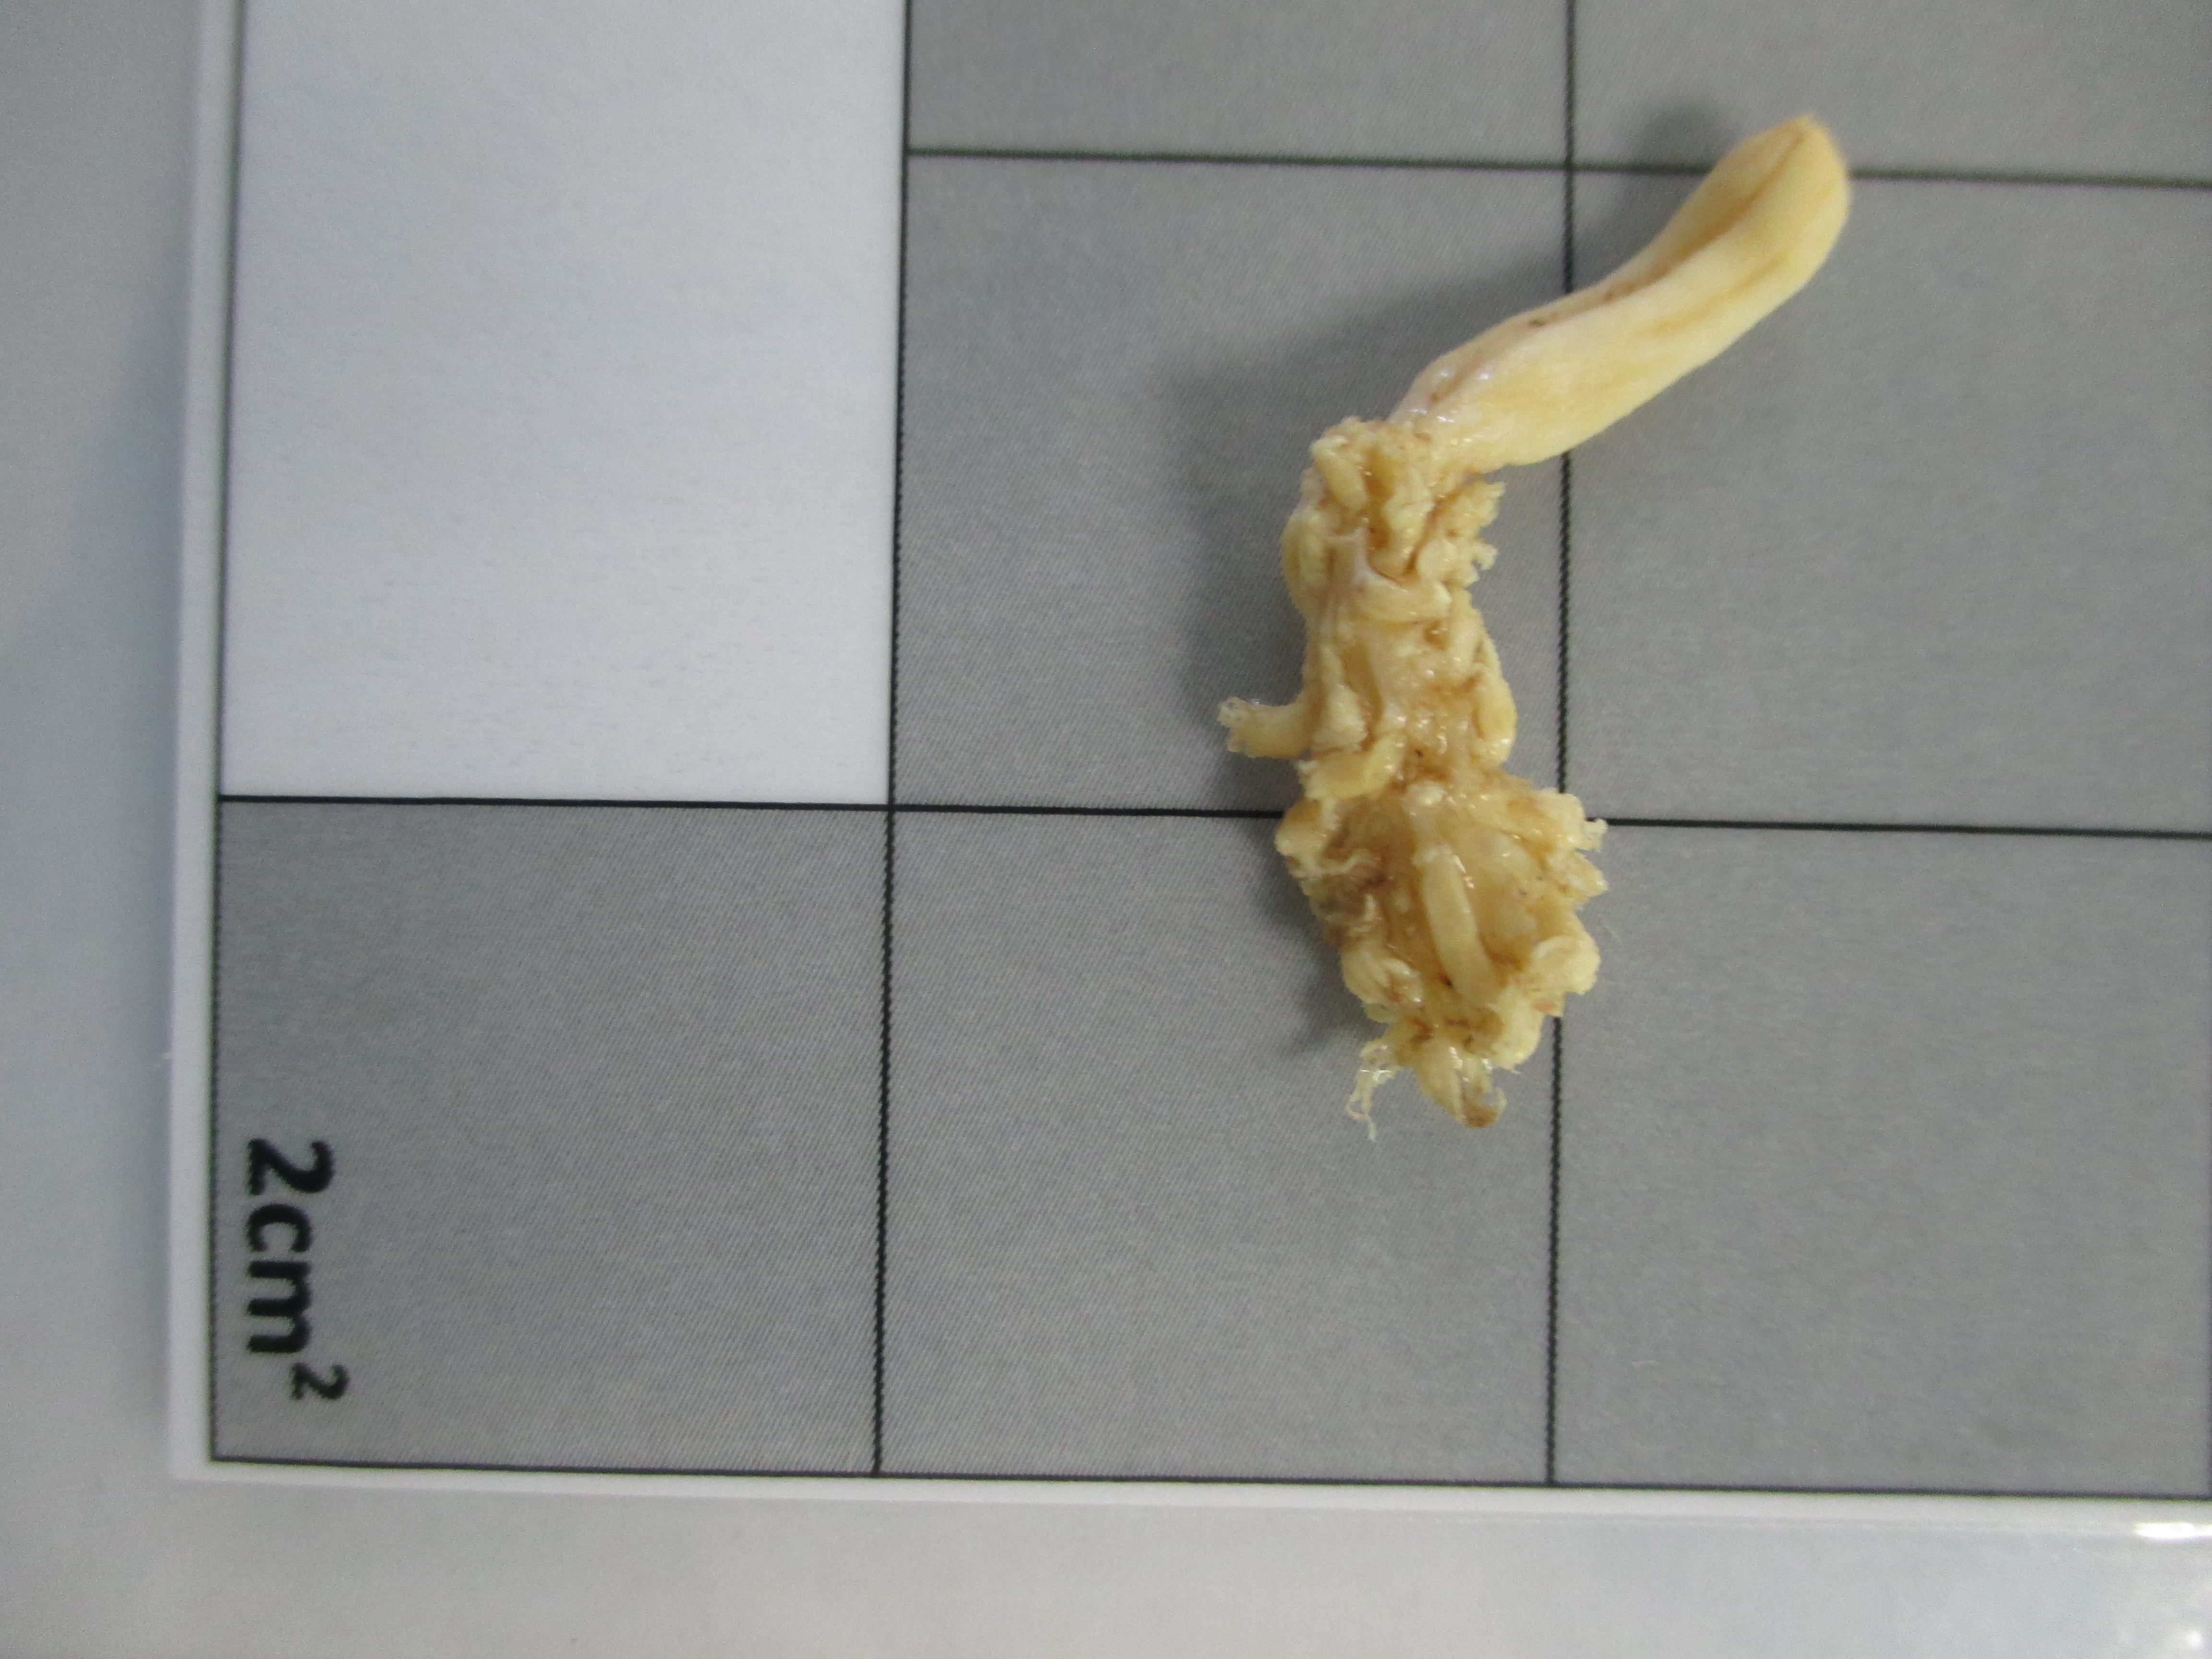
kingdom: Animalia
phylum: Cnidaria
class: Anthozoa
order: Scleralcyonacea
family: Veretillidae
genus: Cavernularia
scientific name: Cavernularia
